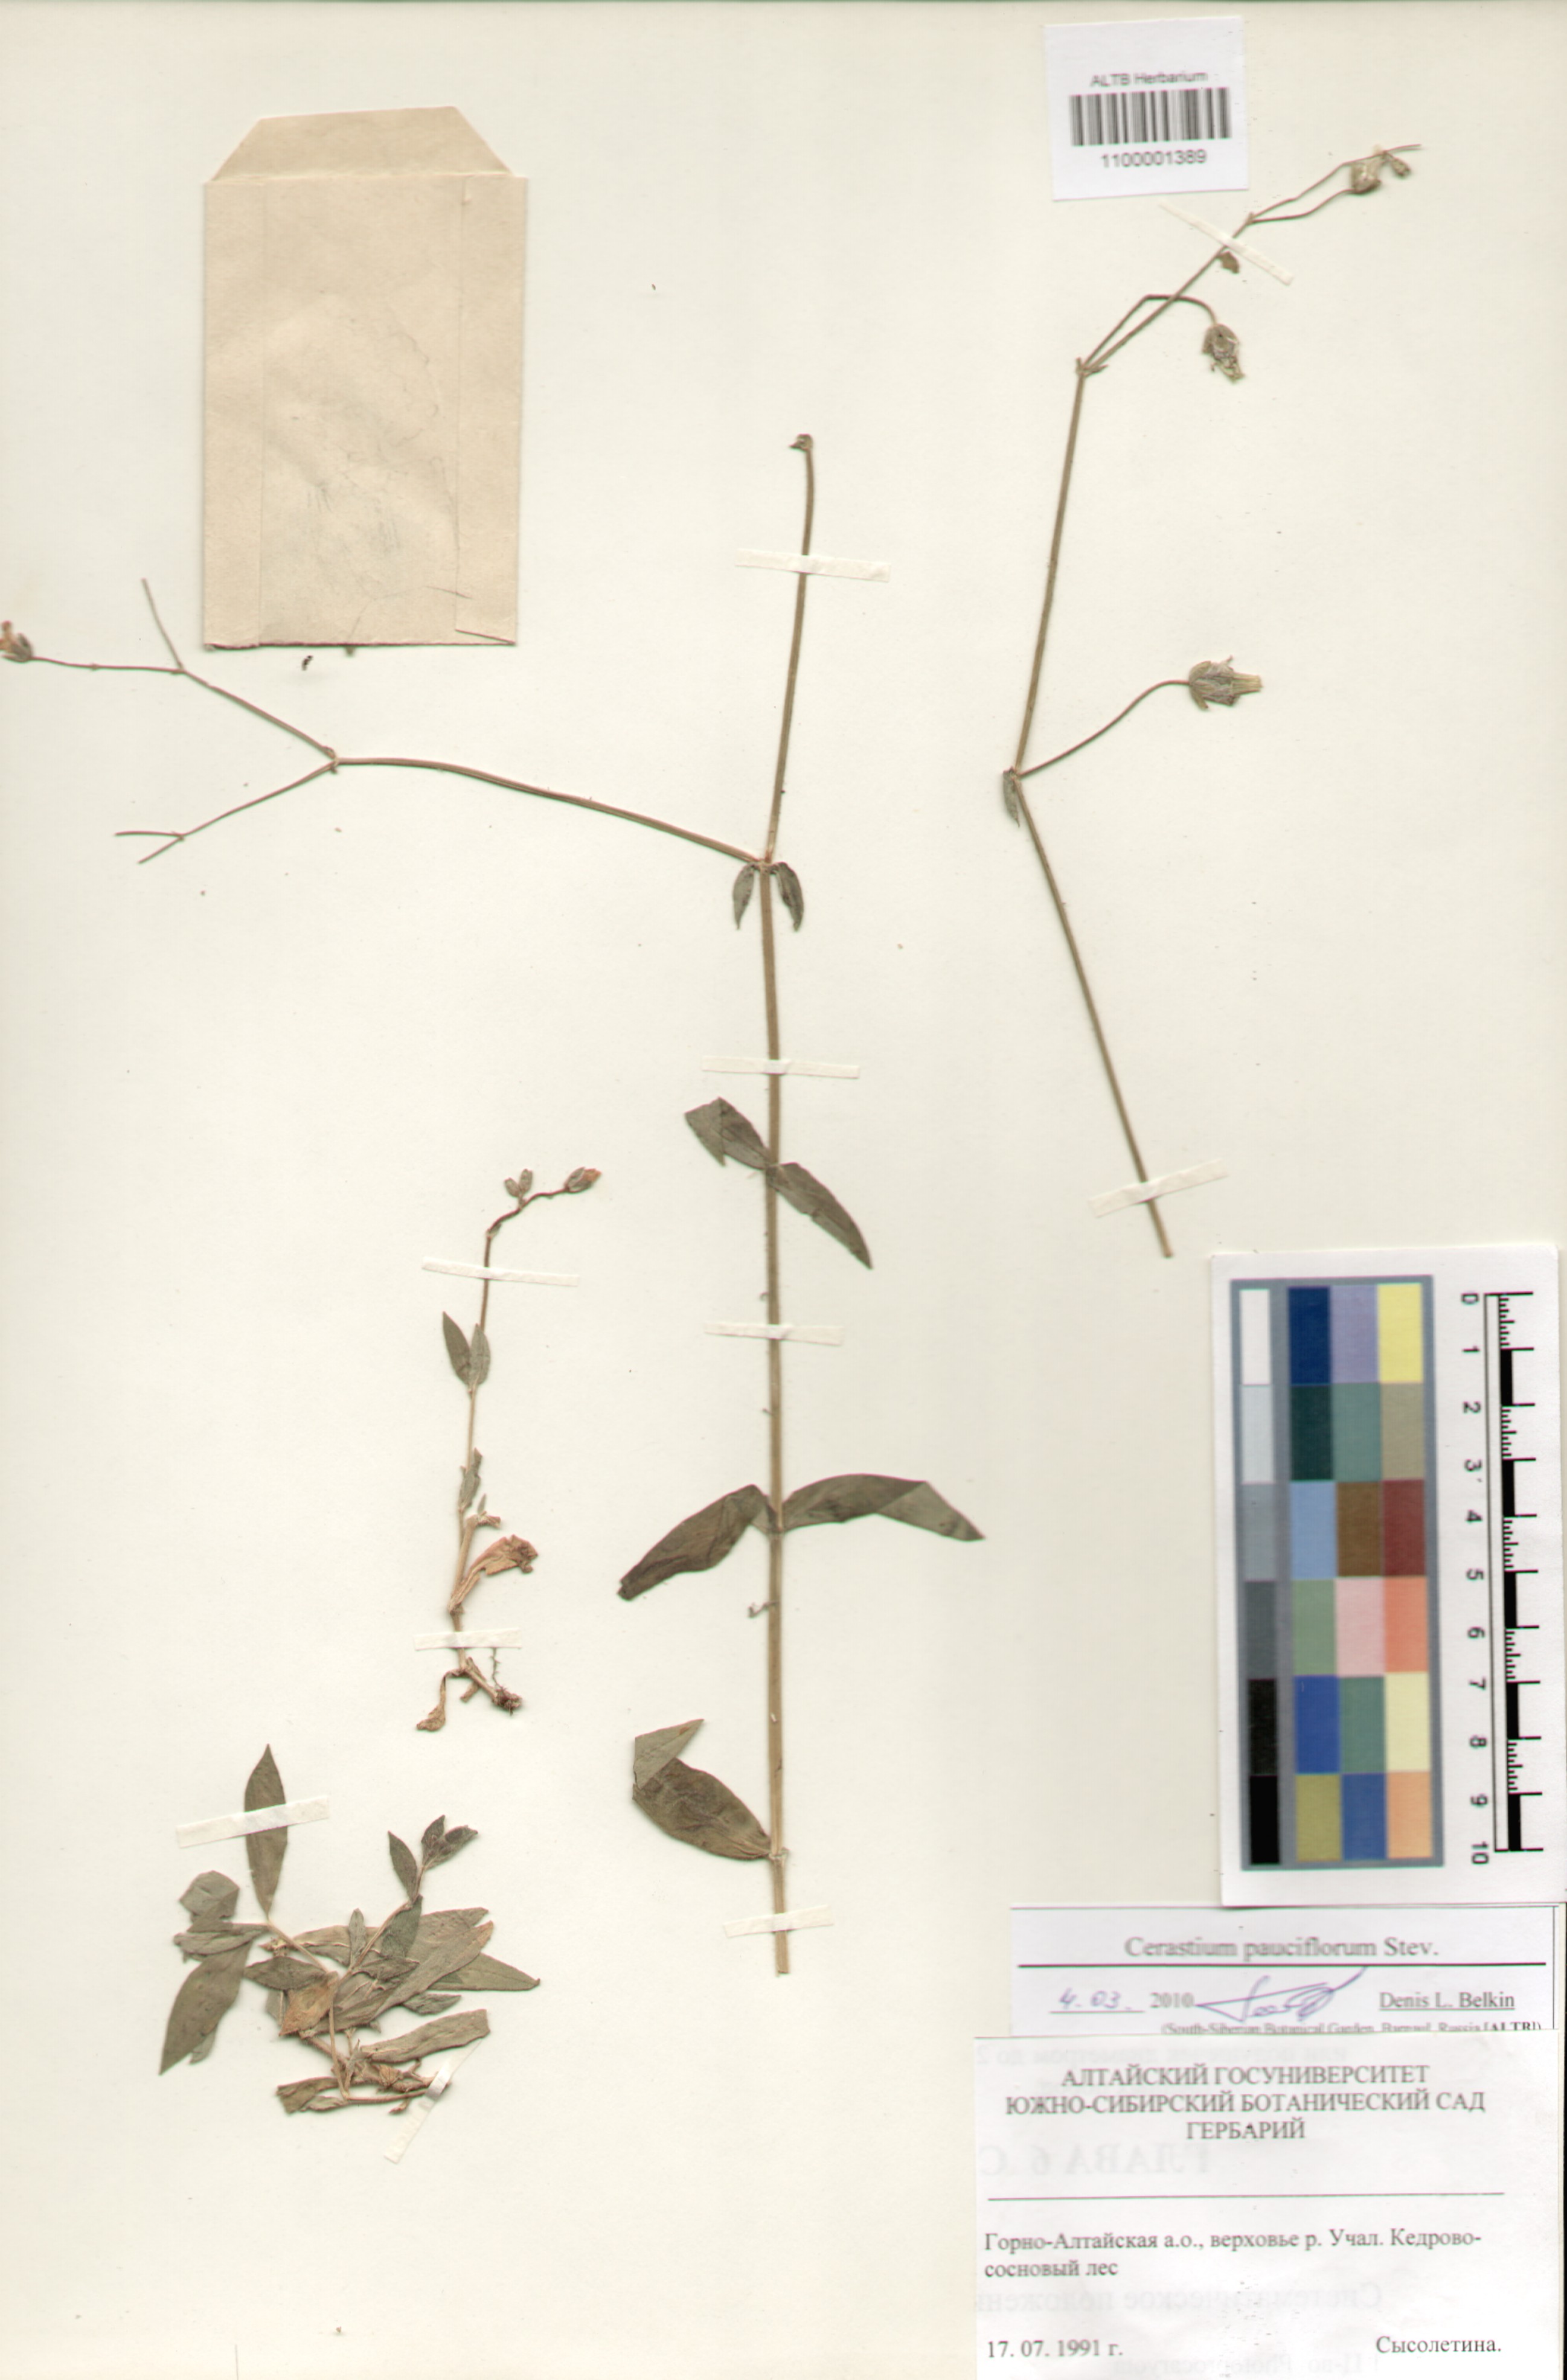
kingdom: Plantae
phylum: Tracheophyta
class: Magnoliopsida
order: Caryophyllales
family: Caryophyllaceae
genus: Cerastium
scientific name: Cerastium pauciflorum
